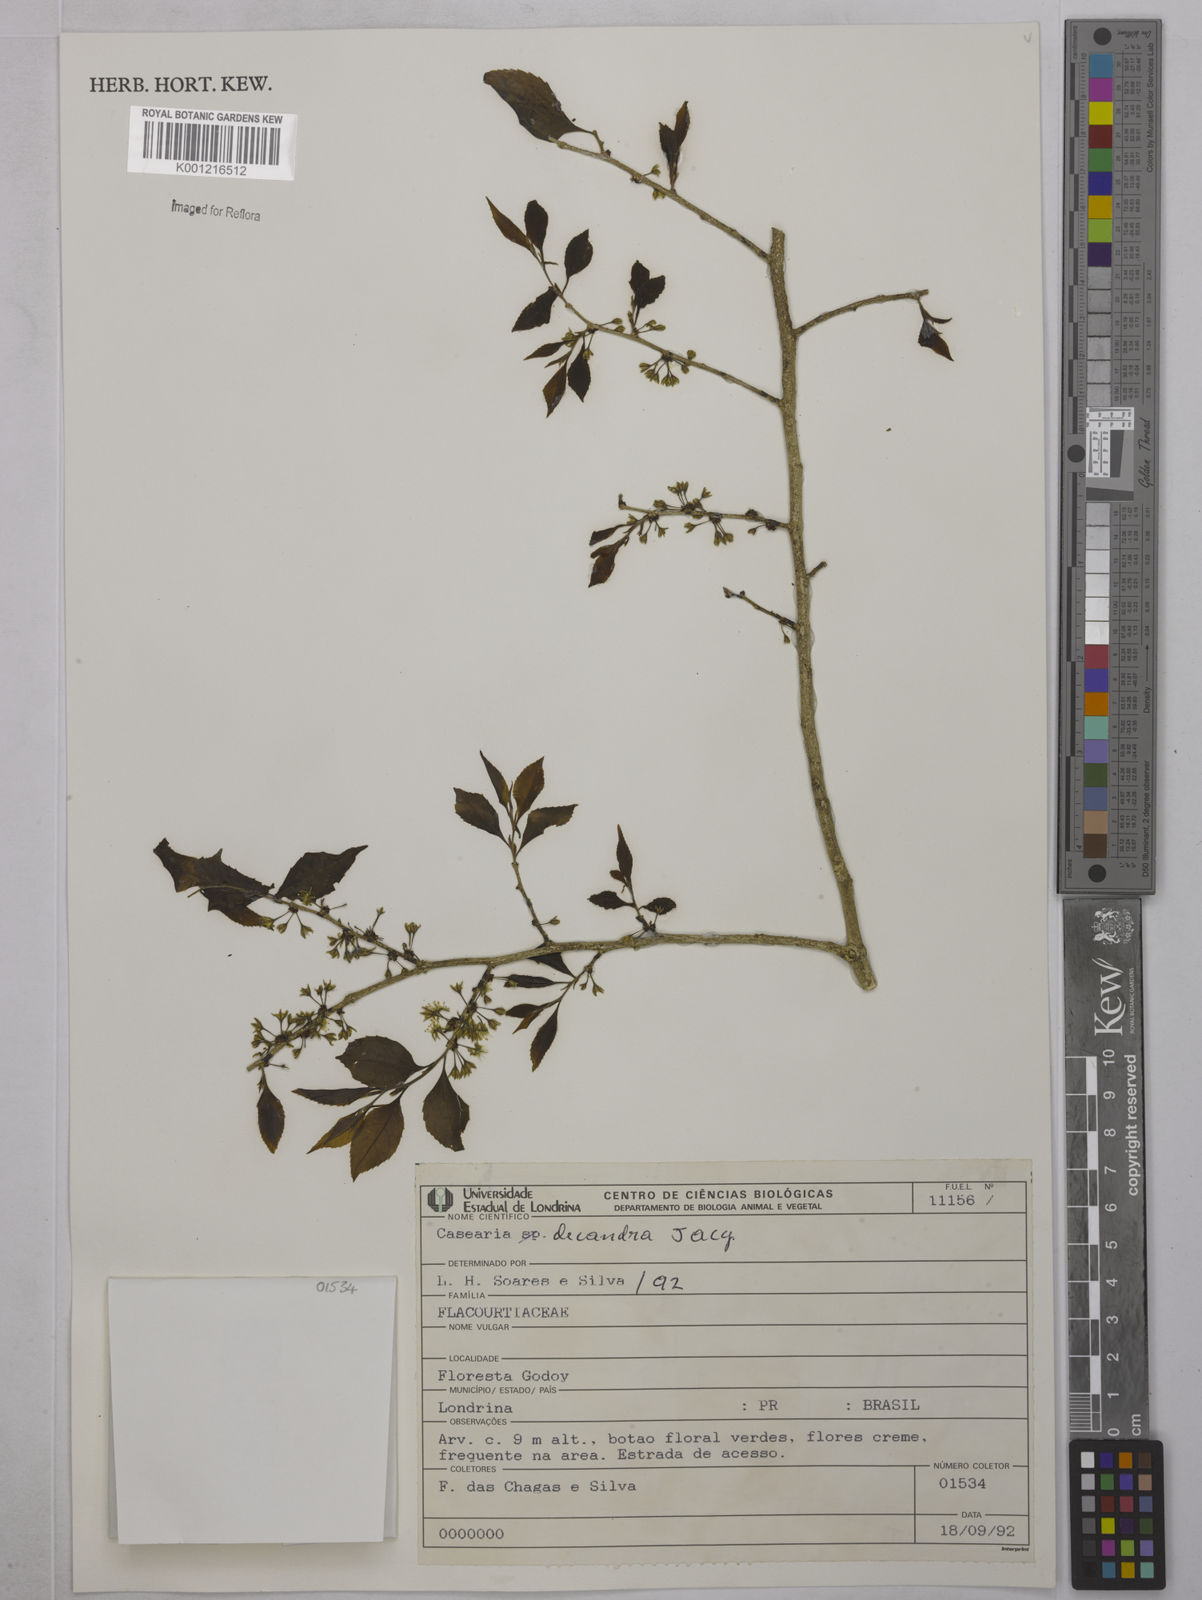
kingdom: Plantae
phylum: Tracheophyta
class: Magnoliopsida
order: Malpighiales
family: Salicaceae
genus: Casearia
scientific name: Casearia decandra
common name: Crack open
